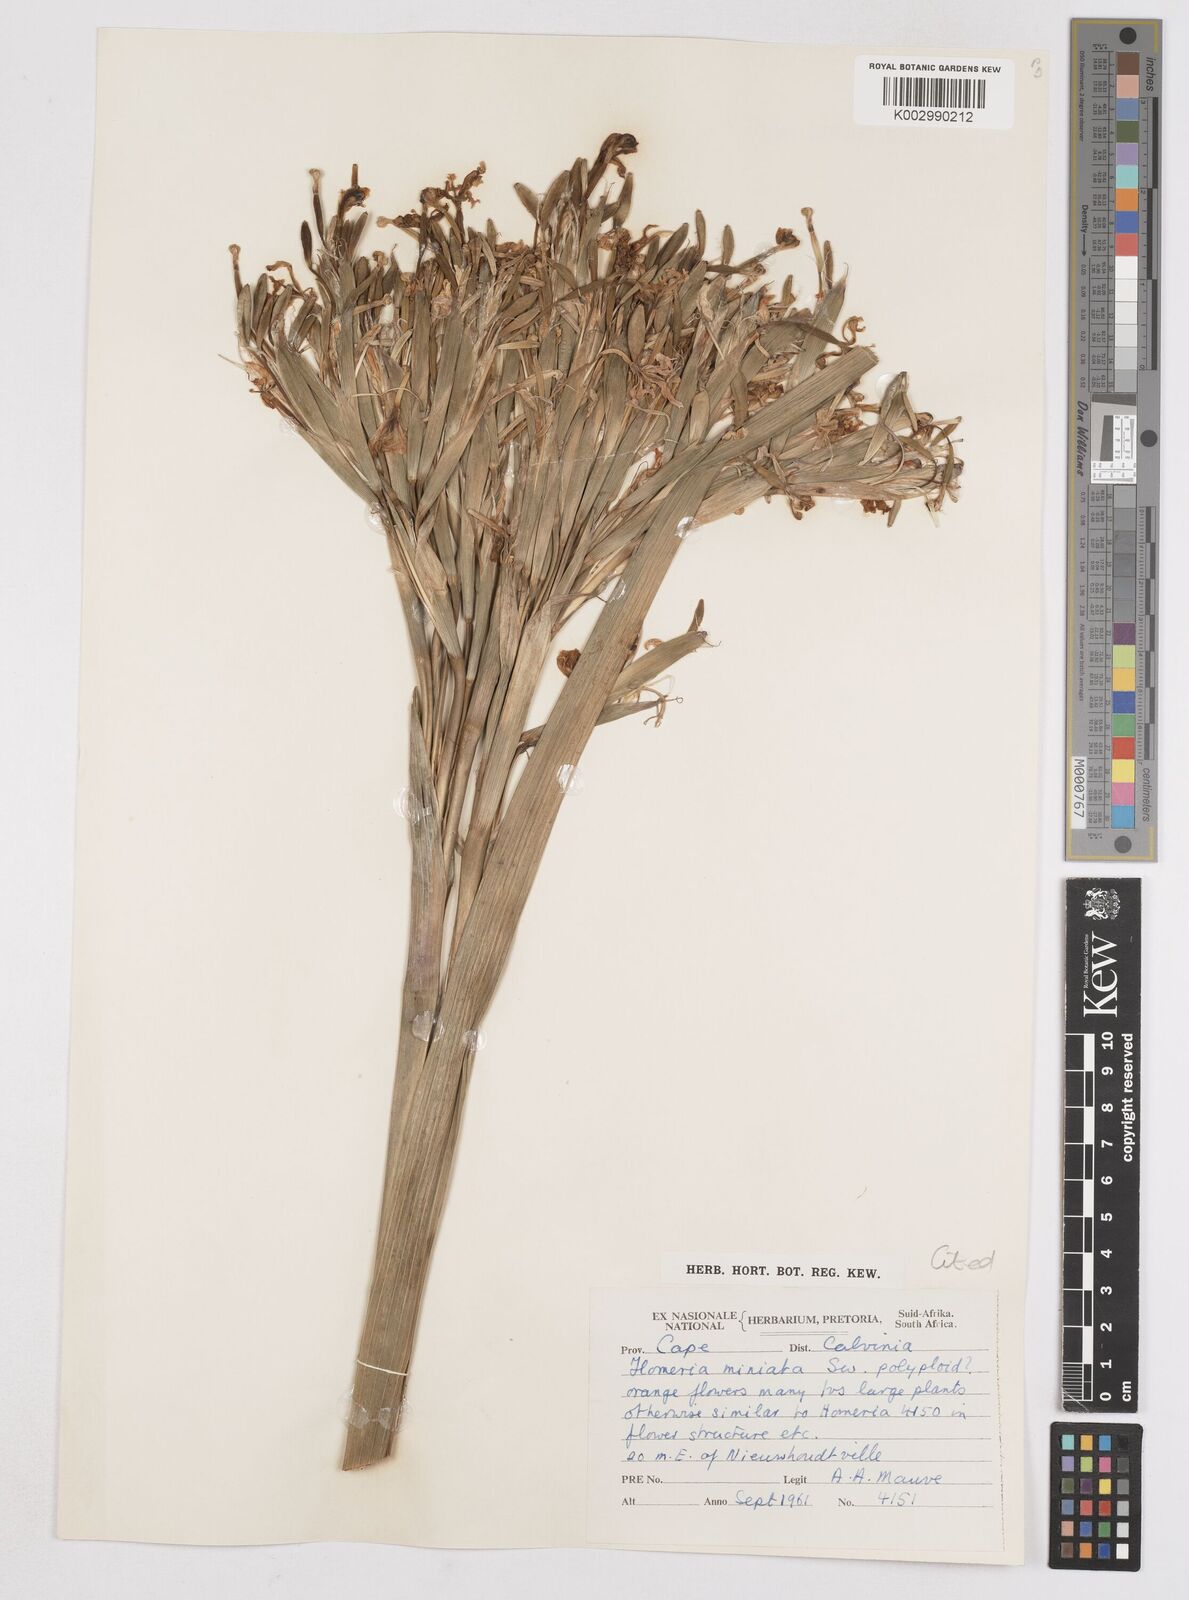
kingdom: Plantae
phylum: Tracheophyta
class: Liliopsida
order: Asparagales
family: Iridaceae
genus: Moraea
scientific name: Moraea miniata
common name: Two-leaf cape-tulip
